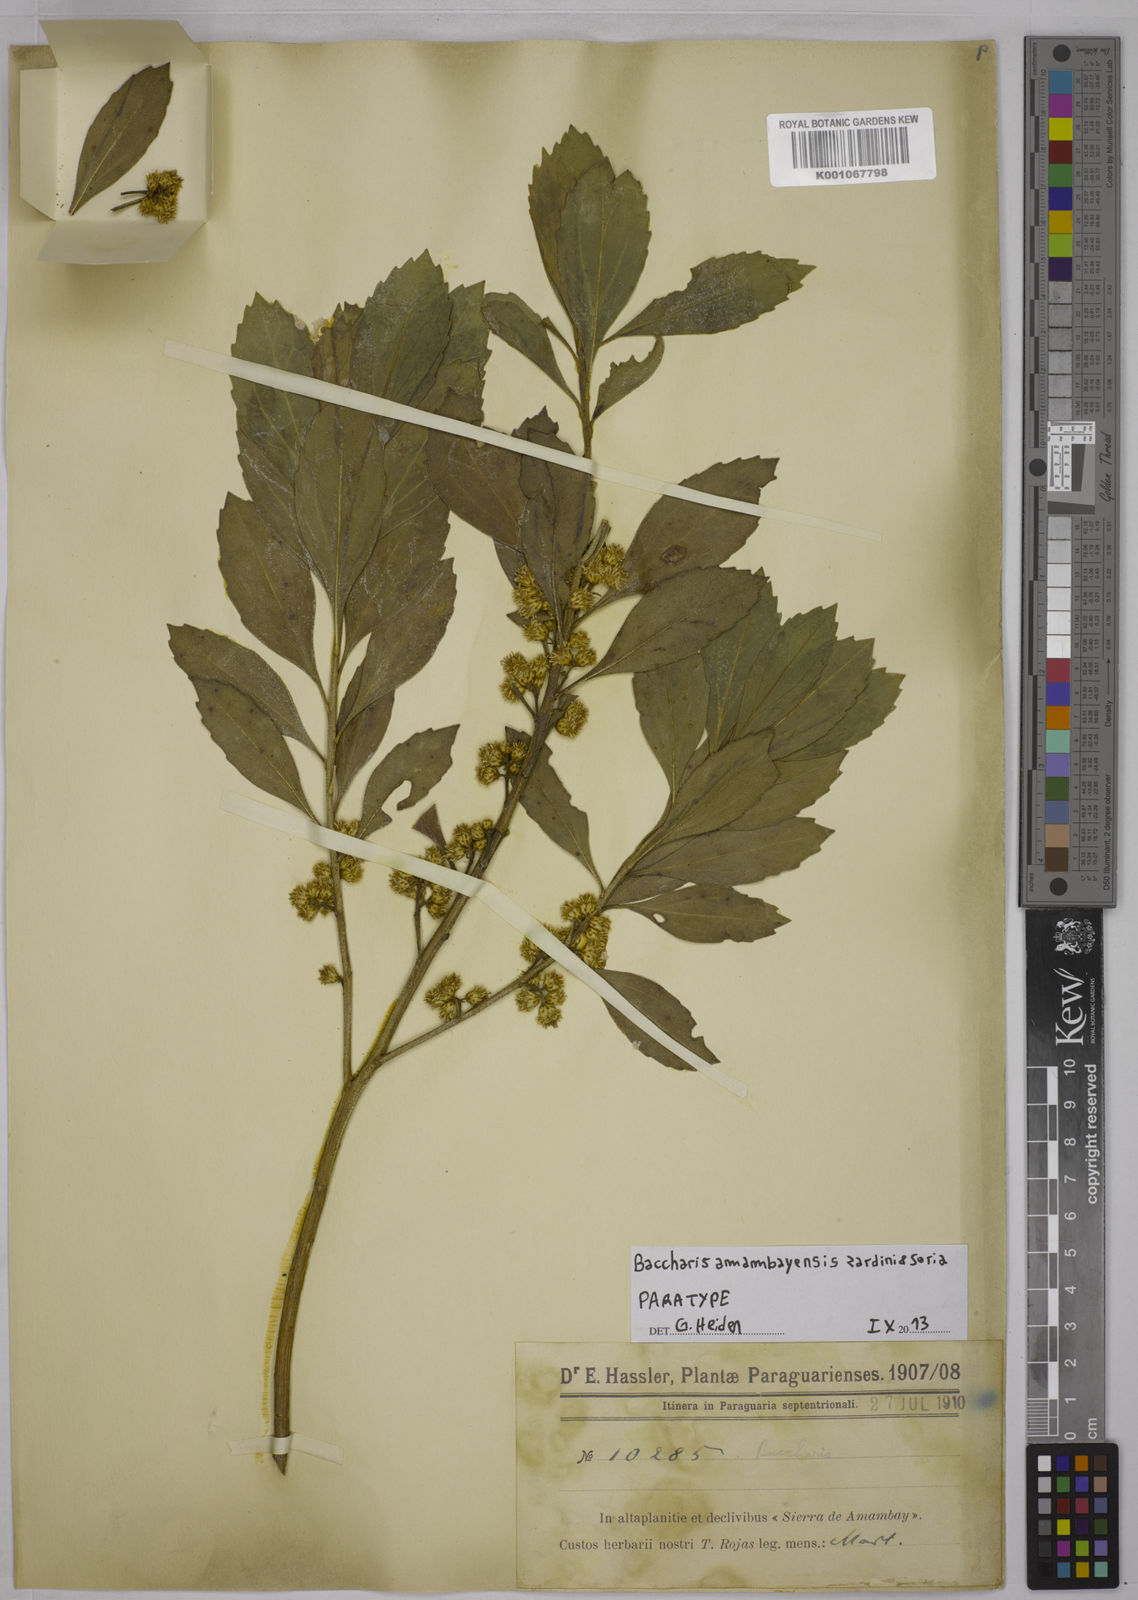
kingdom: Plantae
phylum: Tracheophyta
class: Magnoliopsida
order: Asterales
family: Asteraceae
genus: Baccharis
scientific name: Baccharis amambayensis
